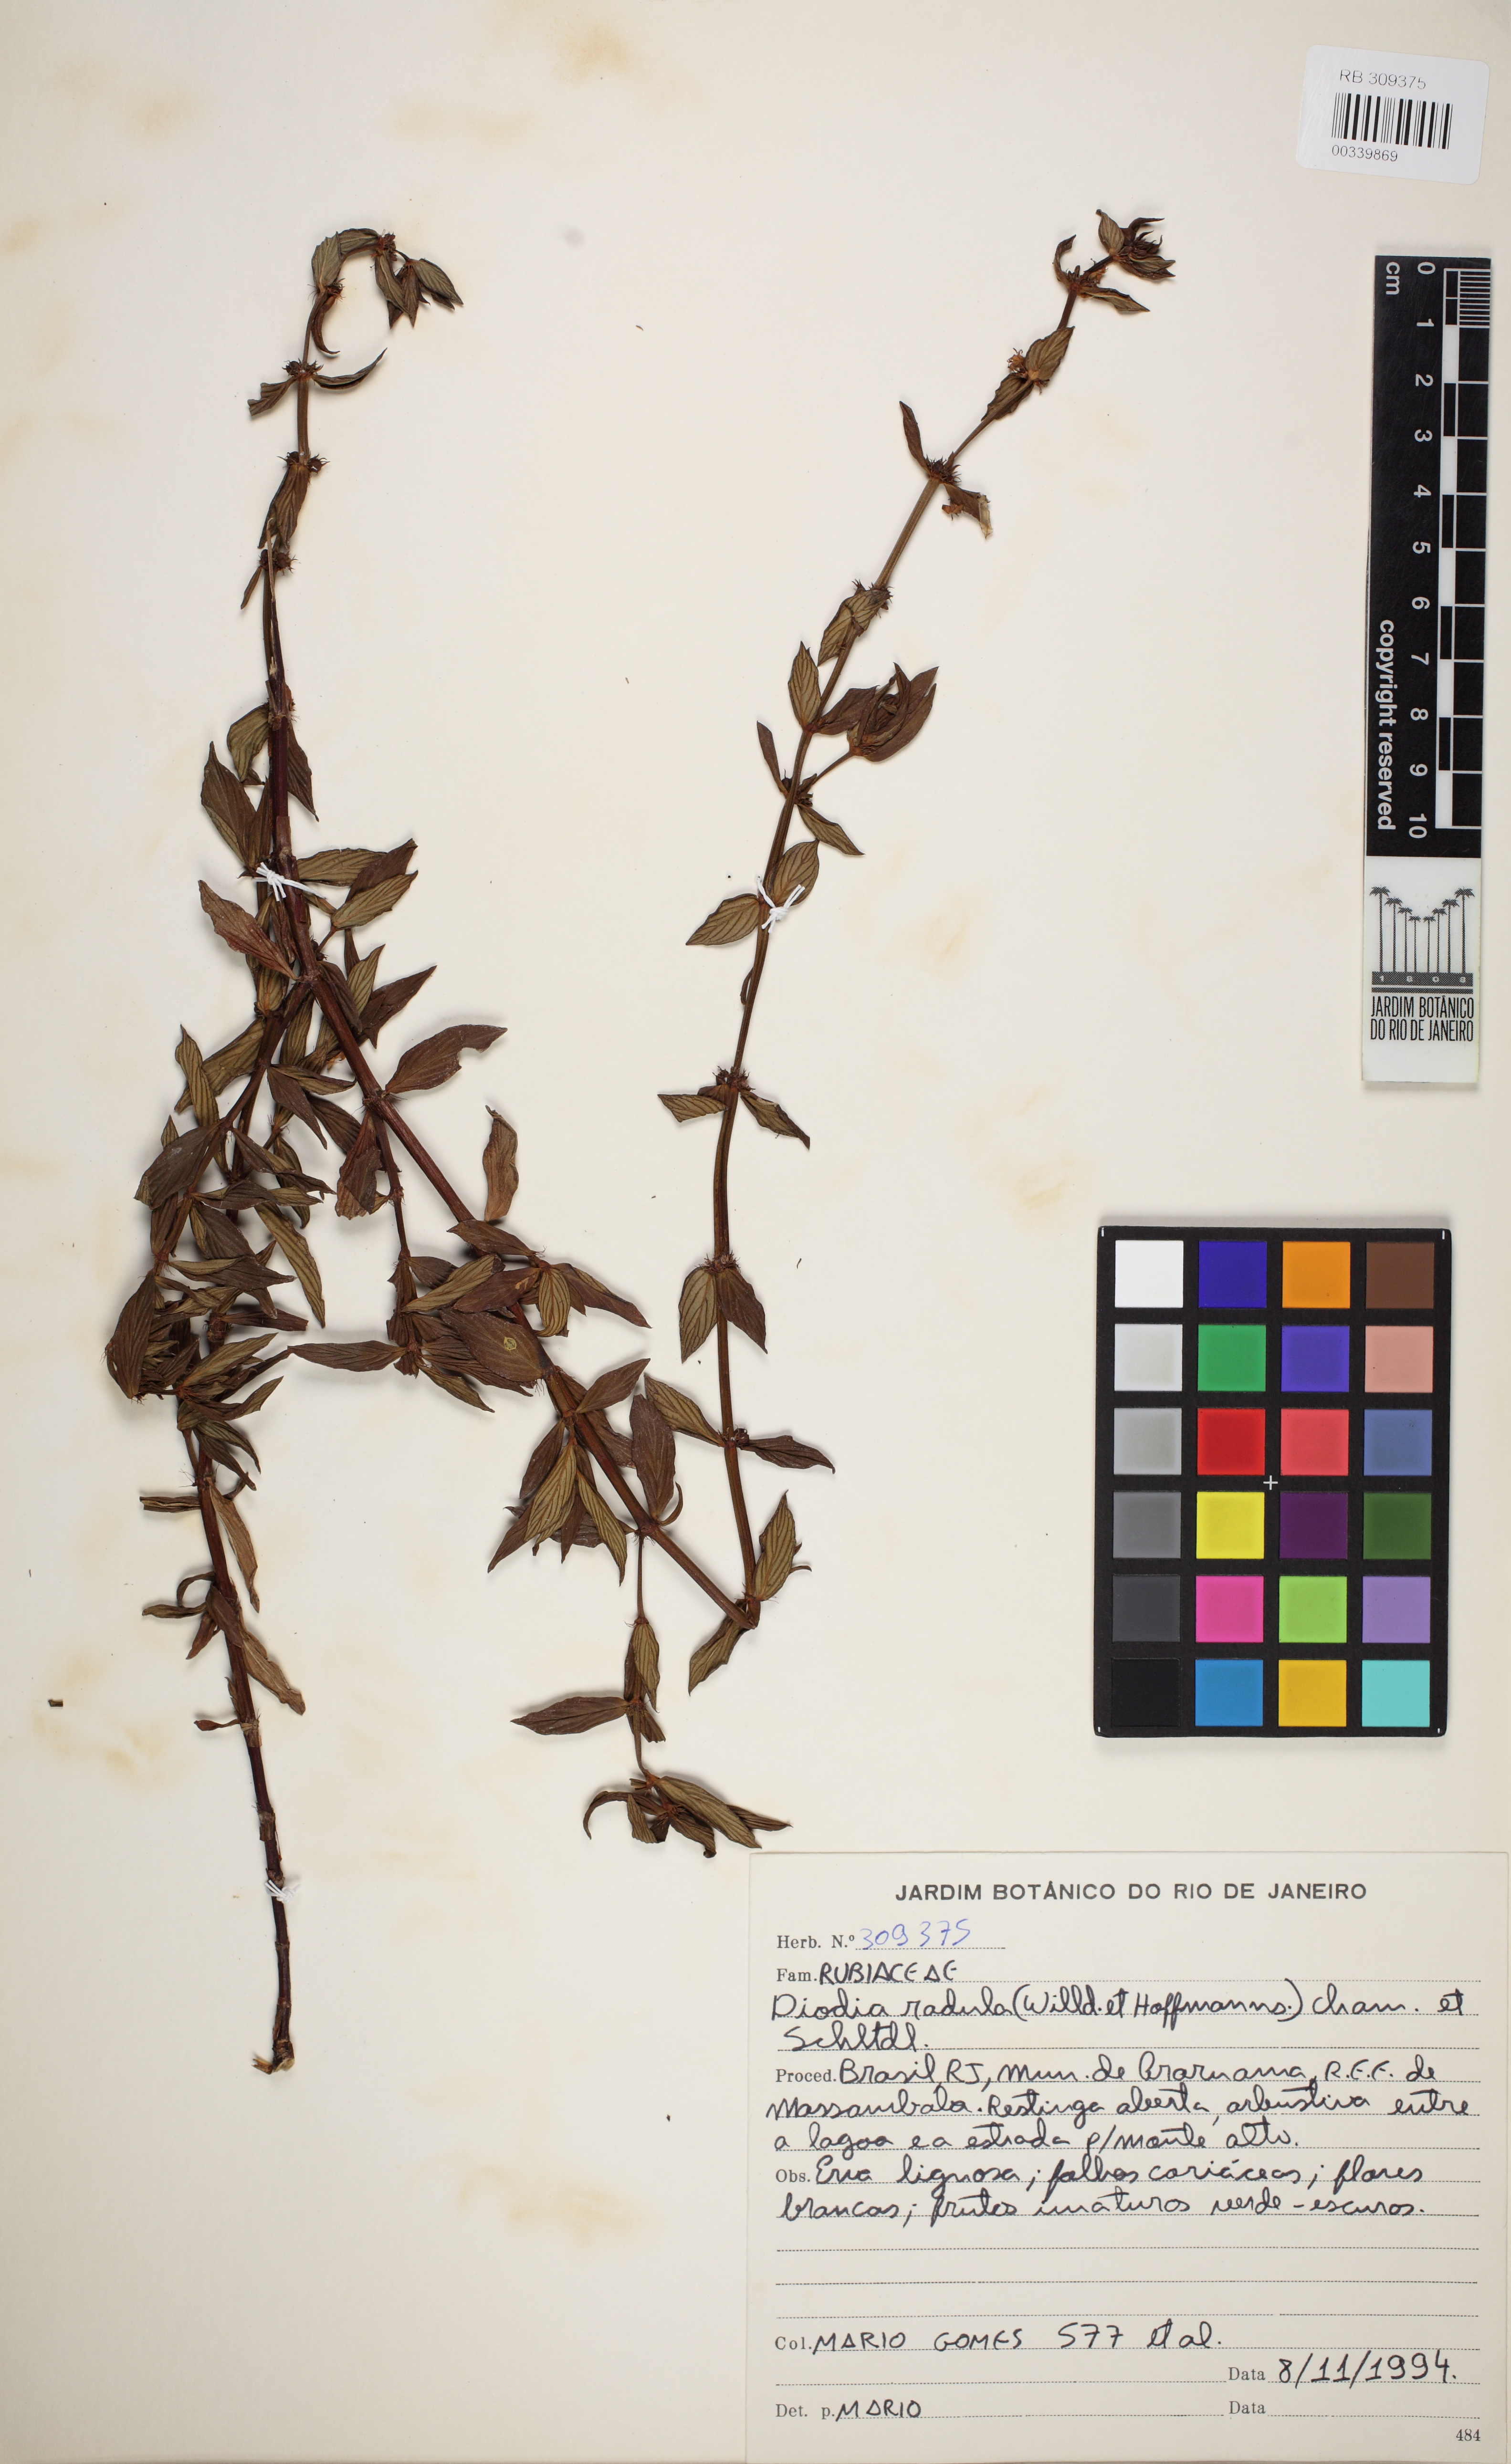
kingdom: Plantae
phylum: Tracheophyta
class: Magnoliopsida
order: Gentianales
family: Rubiaceae
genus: Hexasepalum
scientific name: Hexasepalum radulum
